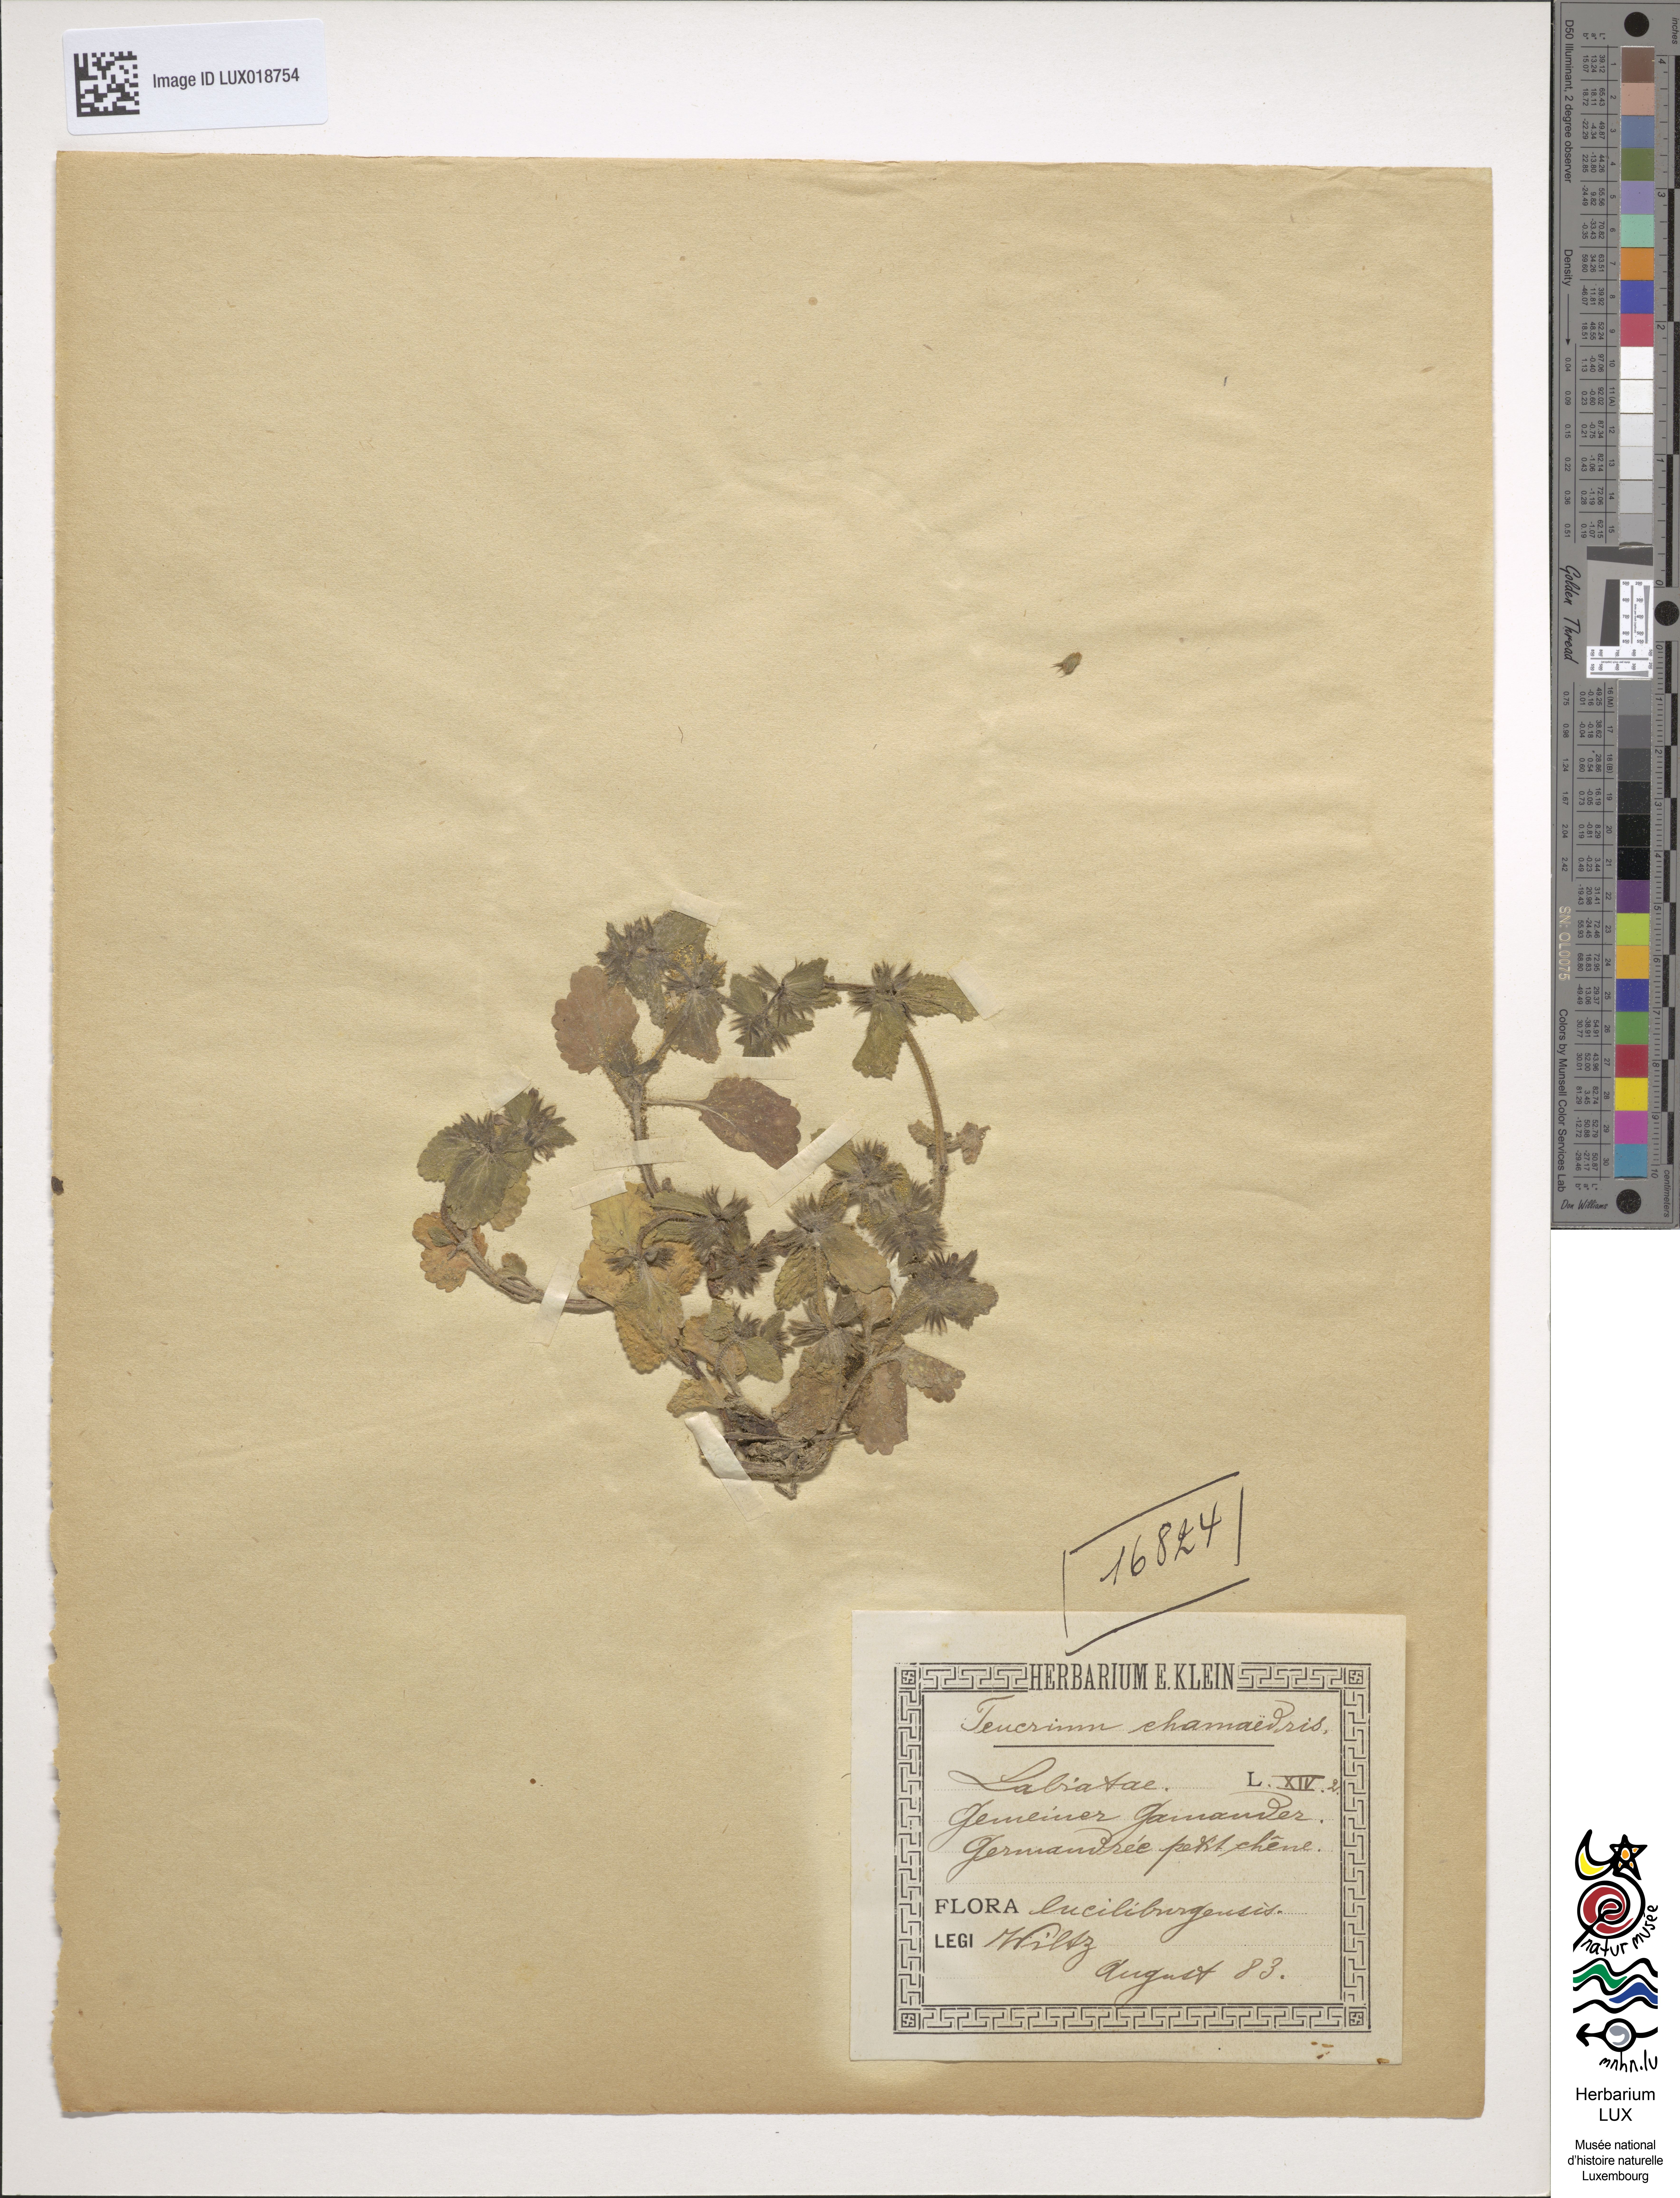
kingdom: Plantae
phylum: Tracheophyta
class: Magnoliopsida
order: Lamiales
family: Lamiaceae
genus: Teucrium
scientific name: Teucrium chamaedrys
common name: Wall germander
